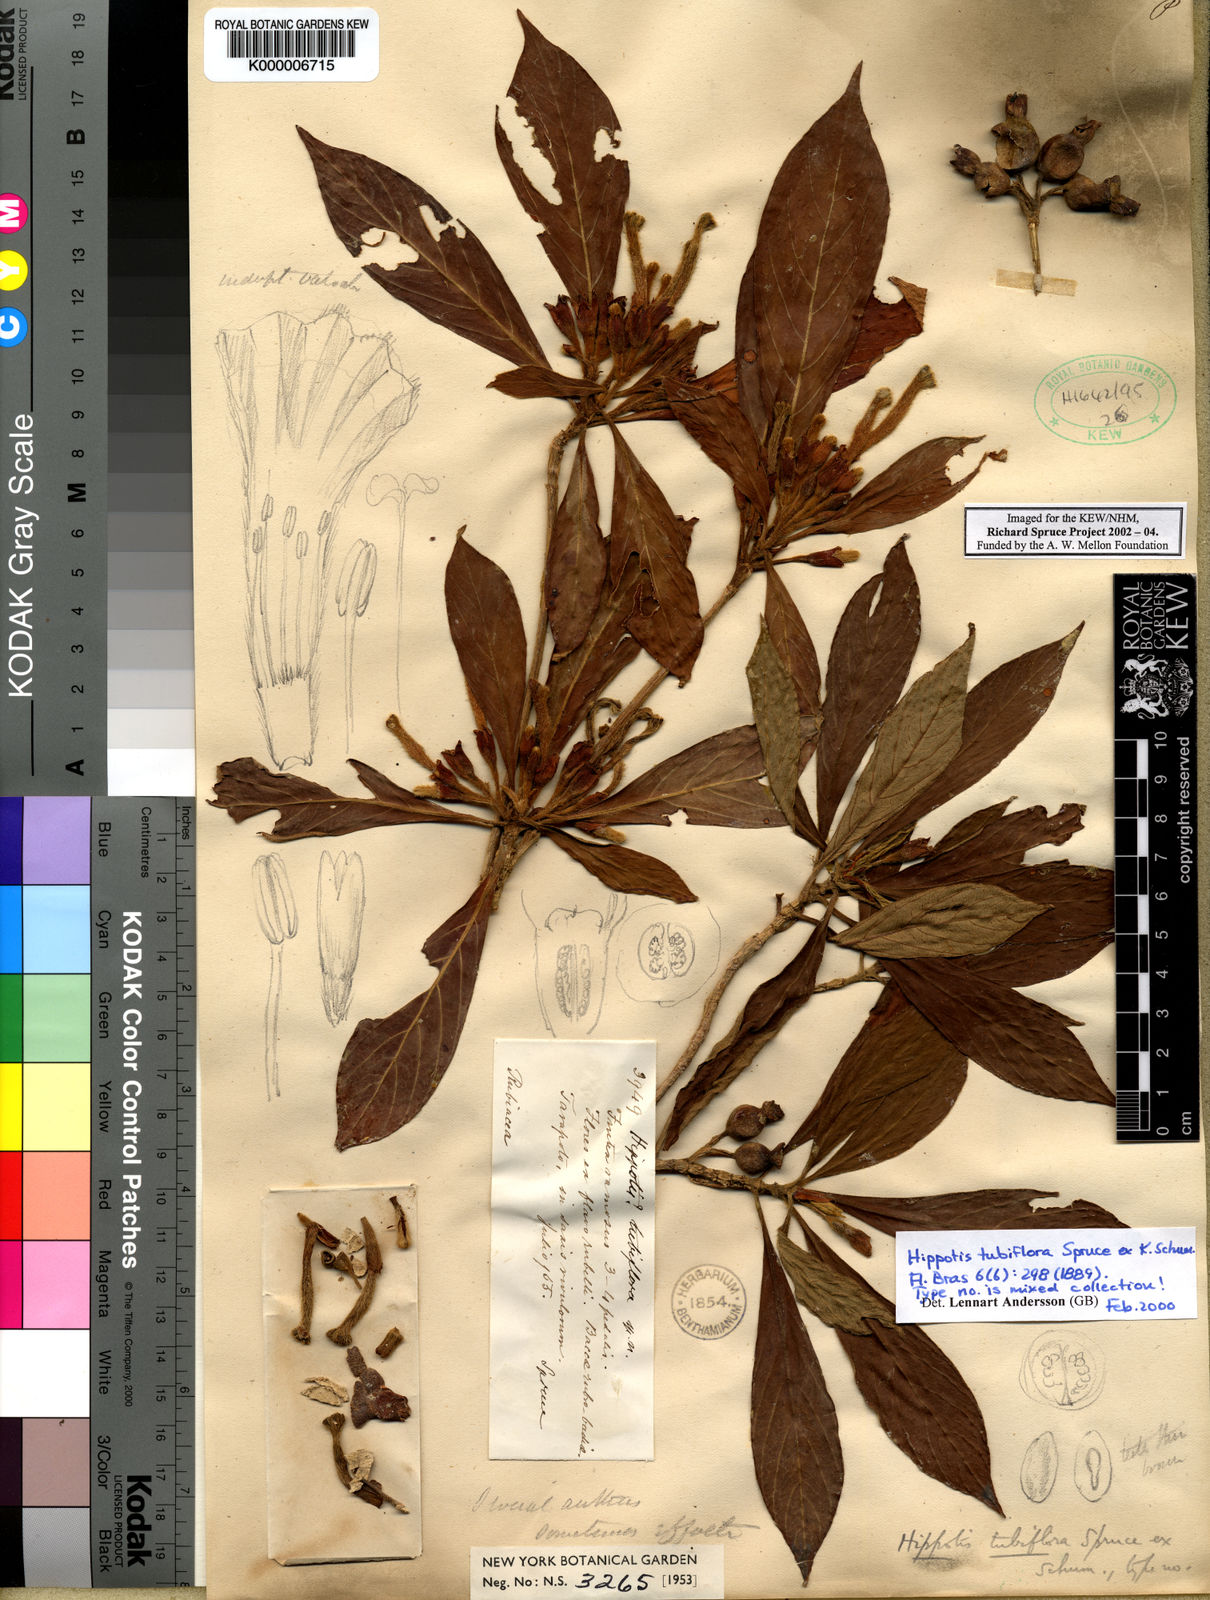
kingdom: Plantae
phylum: Tracheophyta
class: Magnoliopsida
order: Gentianales
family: Rubiaceae
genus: Hippotis
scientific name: Hippotis tubiflora
